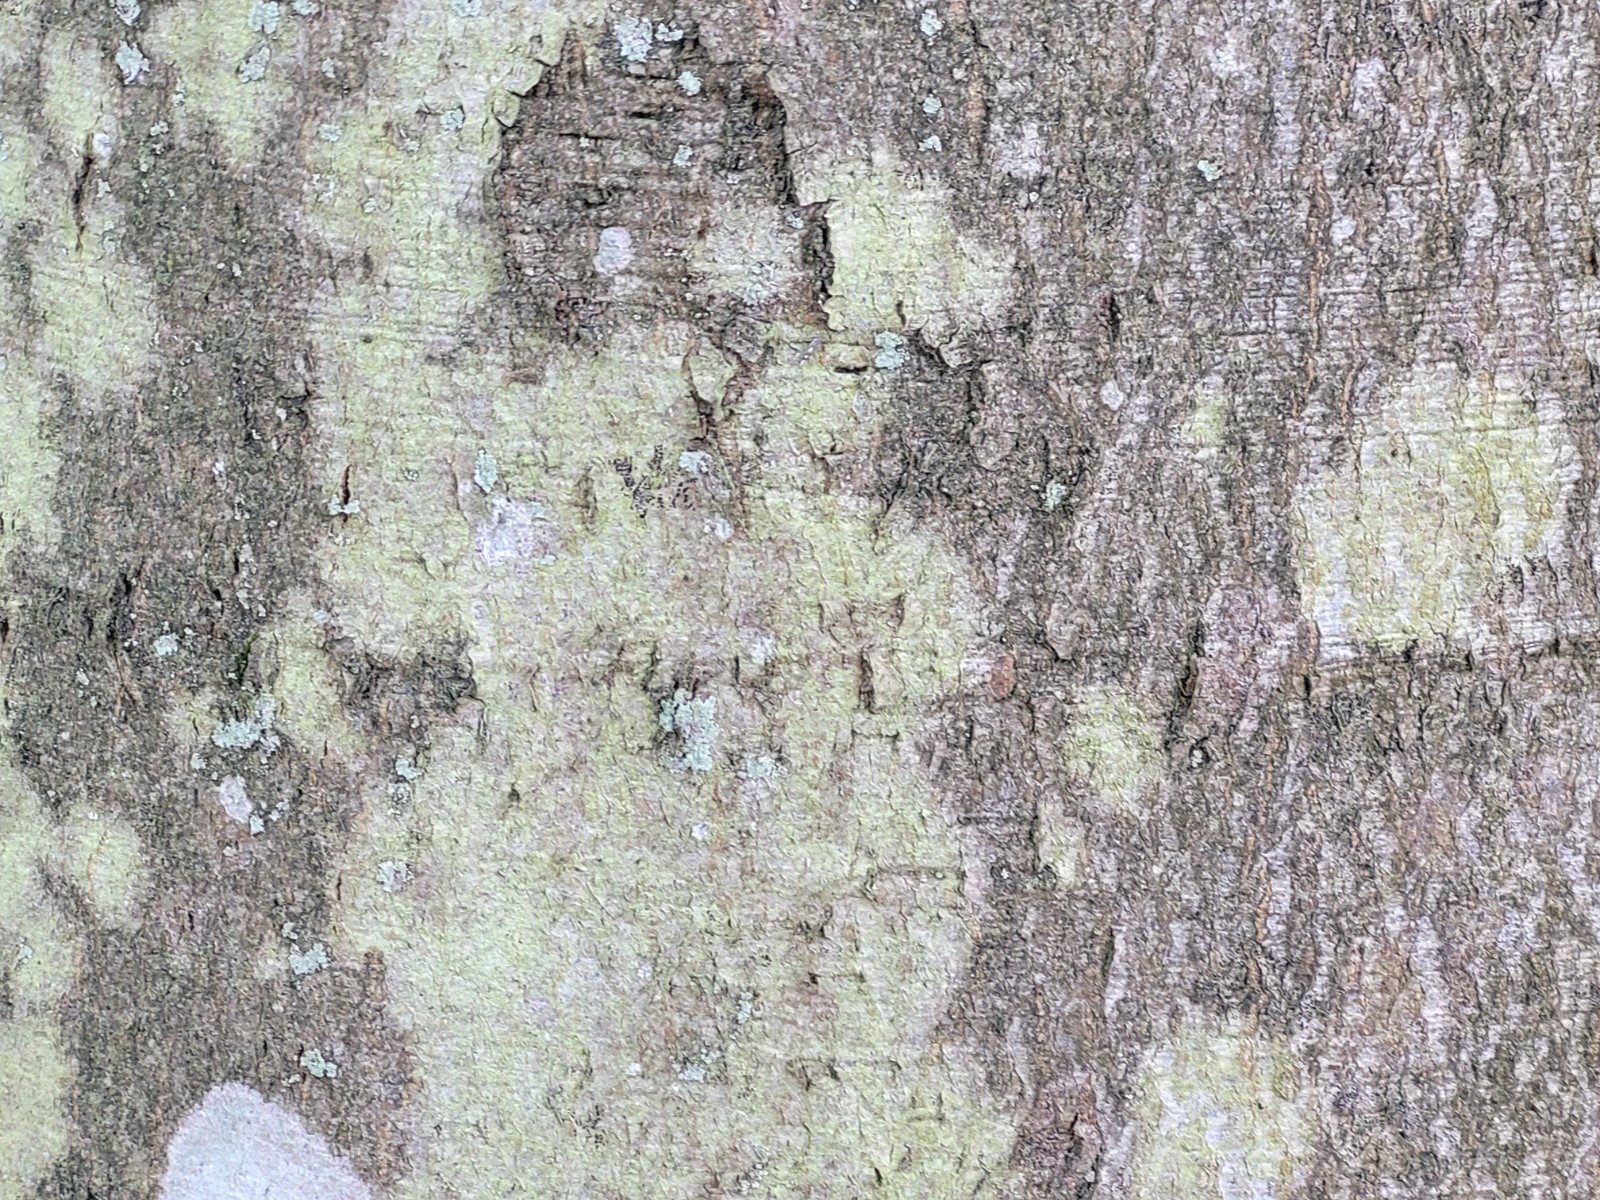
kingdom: Fungi
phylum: Ascomycota
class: Lecanoromycetes
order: Lecanorales
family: Lecanoraceae
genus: Lecanora
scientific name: Lecanora expallens
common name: bleggul kantskivelav
